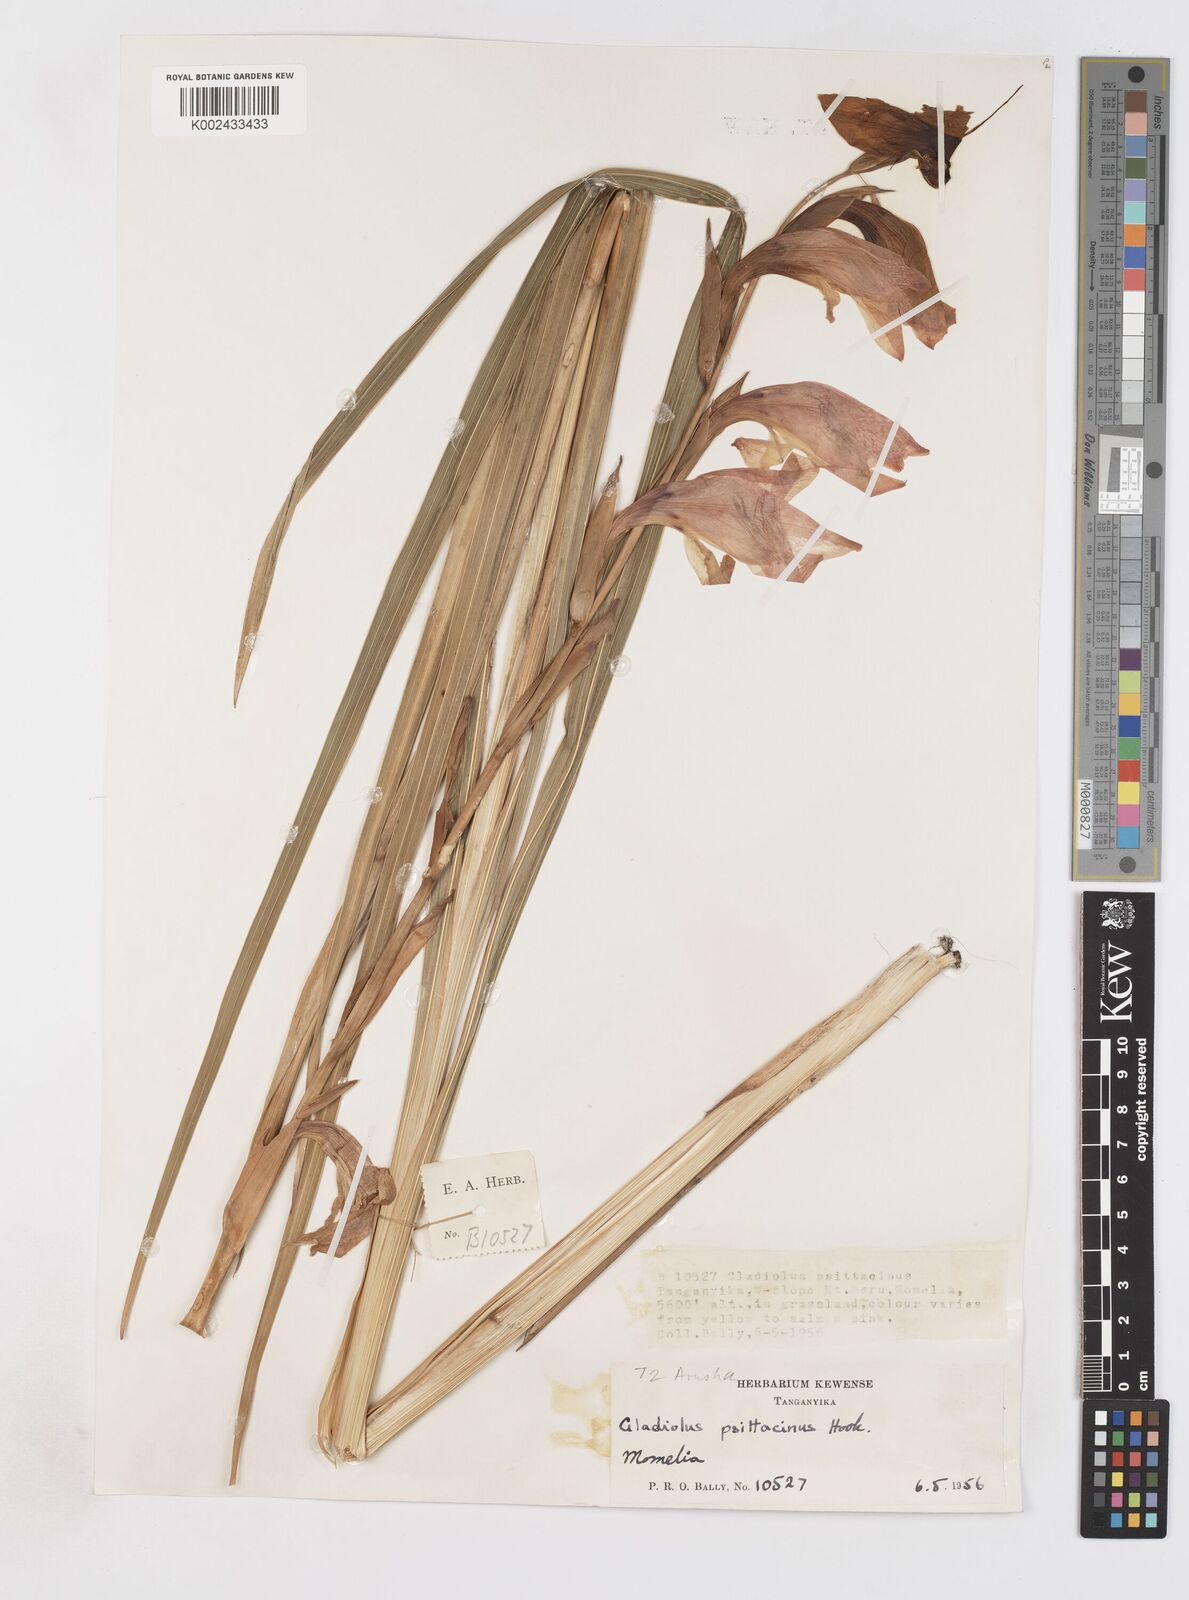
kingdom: Plantae
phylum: Tracheophyta
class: Liliopsida
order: Asparagales
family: Iridaceae
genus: Gladiolus
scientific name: Gladiolus dalenii
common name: Cornflag
